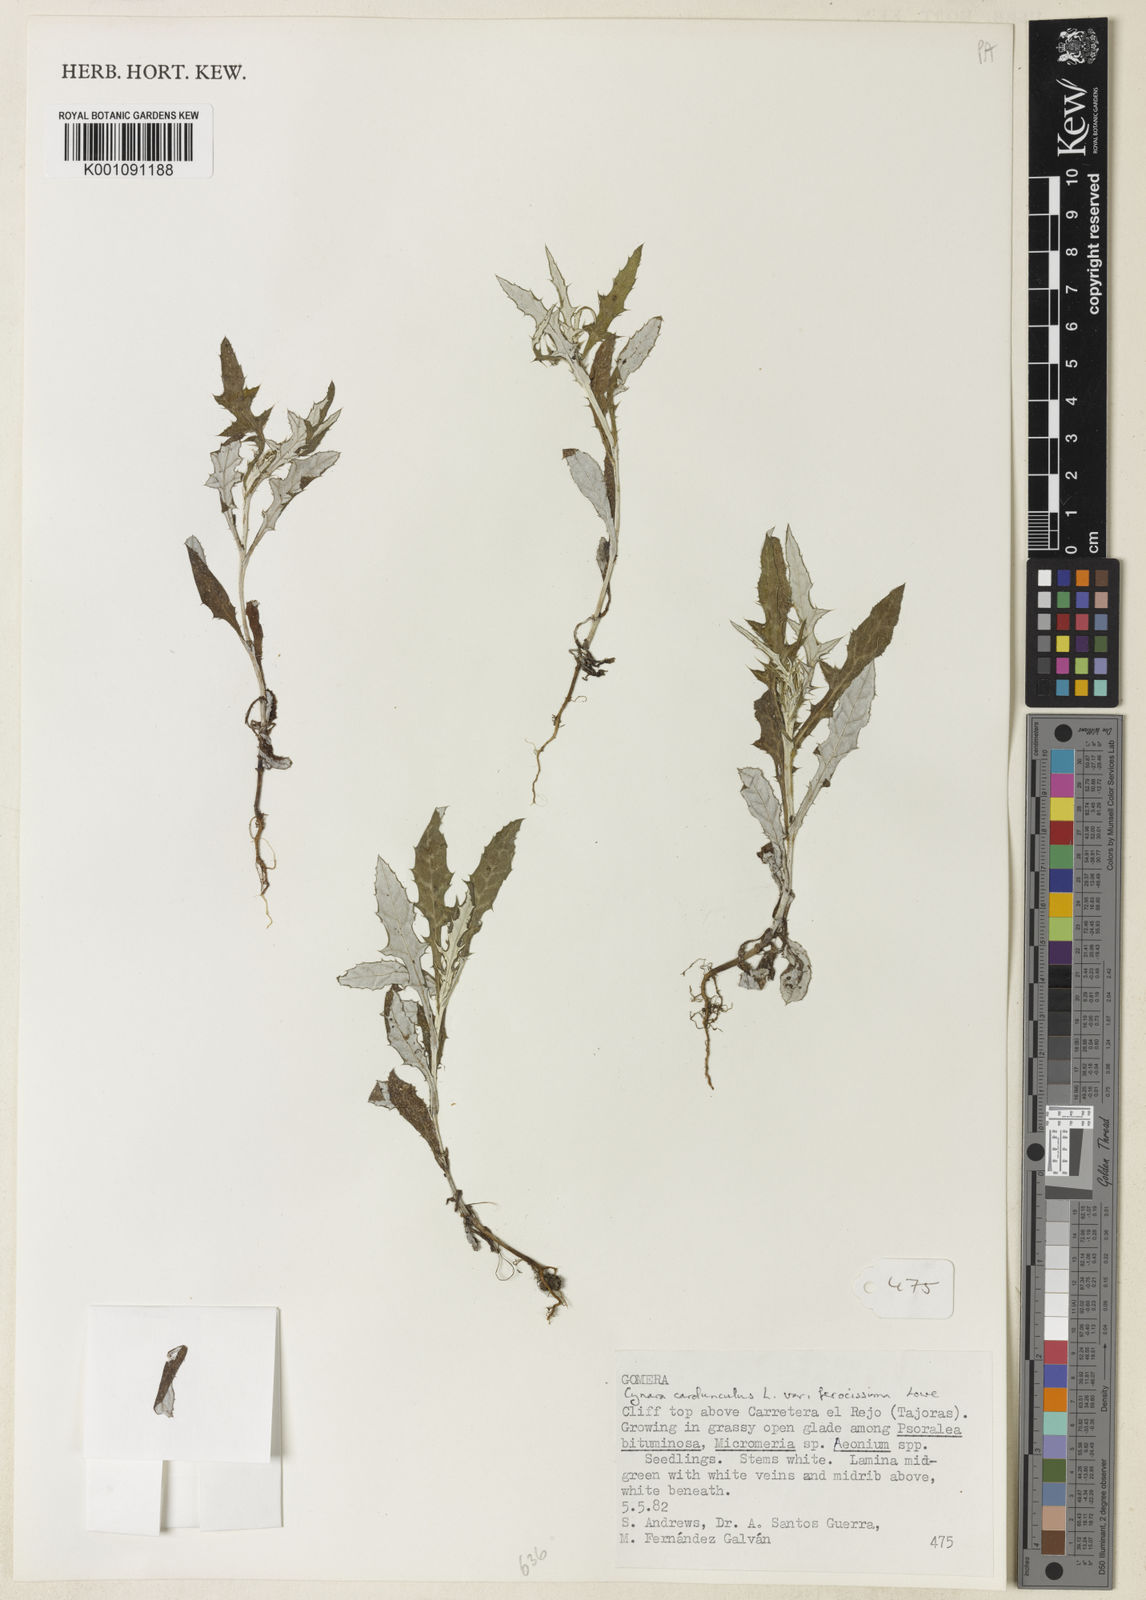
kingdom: Plantae
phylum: Tracheophyta
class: Magnoliopsida
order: Asterales
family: Asteraceae
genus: Cynara
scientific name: Cynara cardunculus
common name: Globe artichoke
